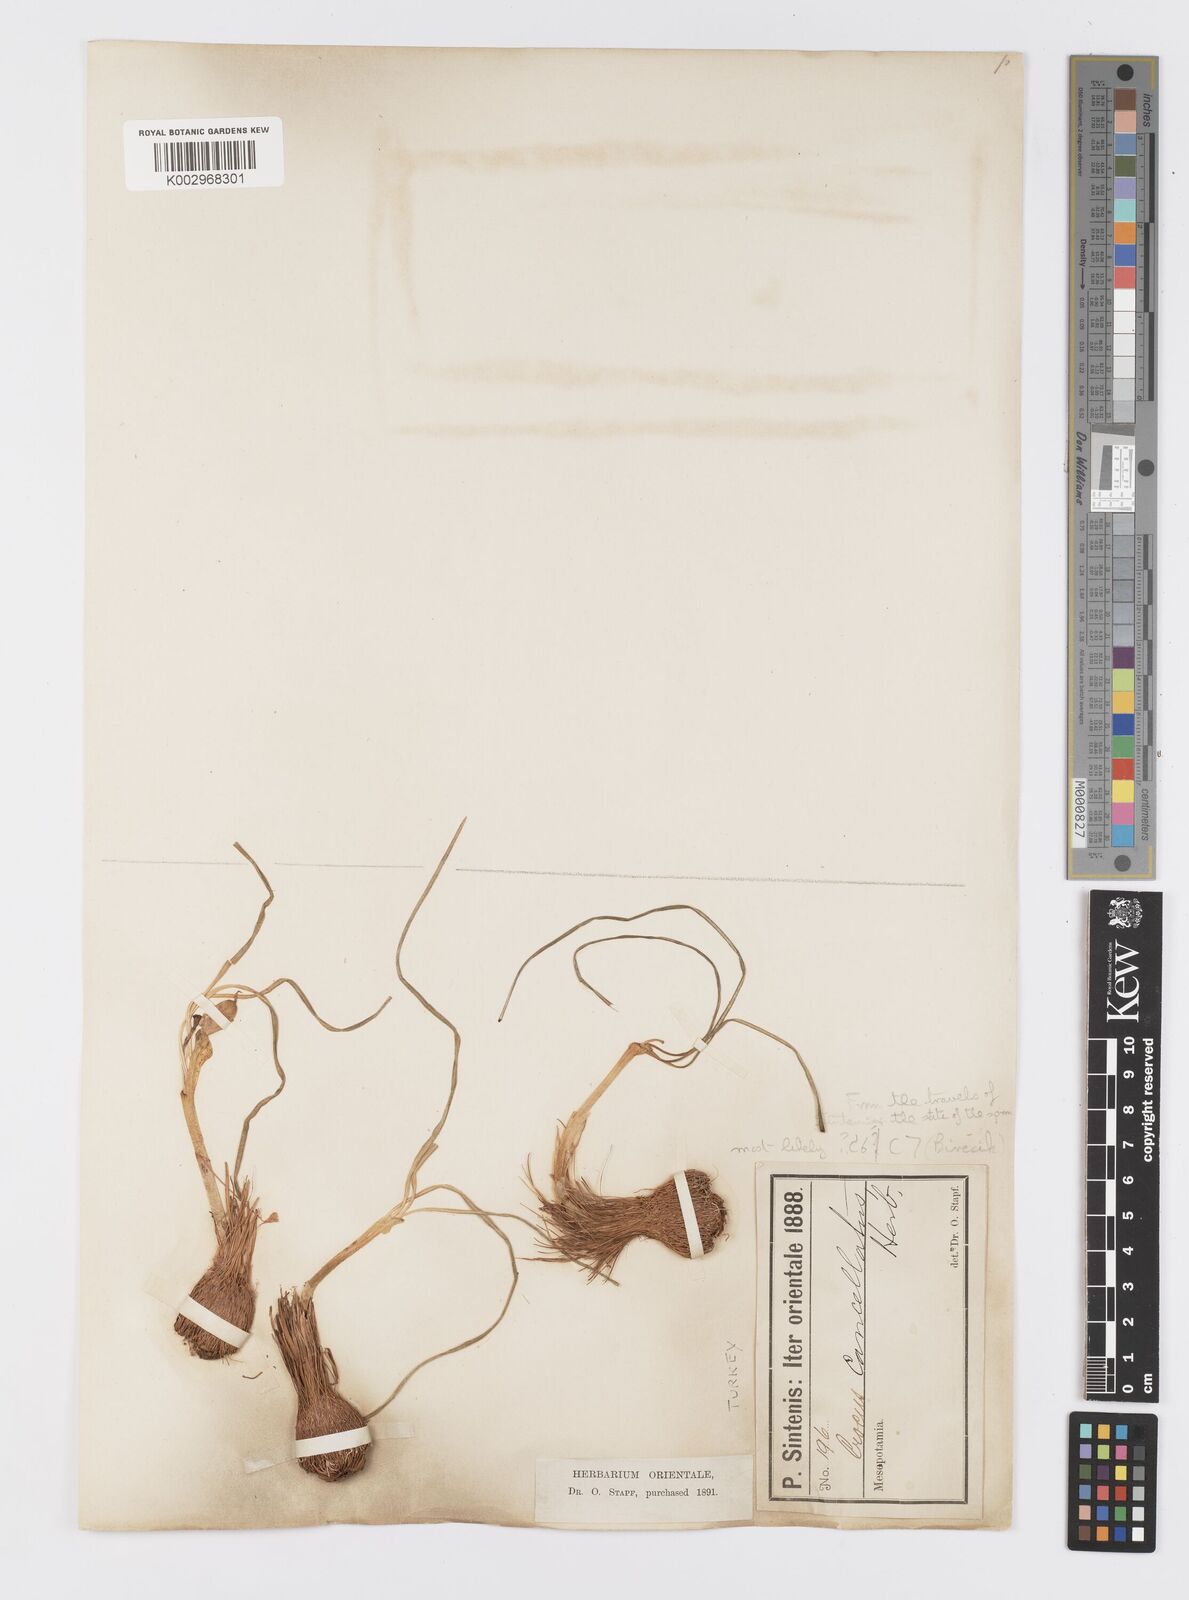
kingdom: Plantae
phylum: Tracheophyta
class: Liliopsida
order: Asparagales
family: Iridaceae
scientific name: Iridaceae
